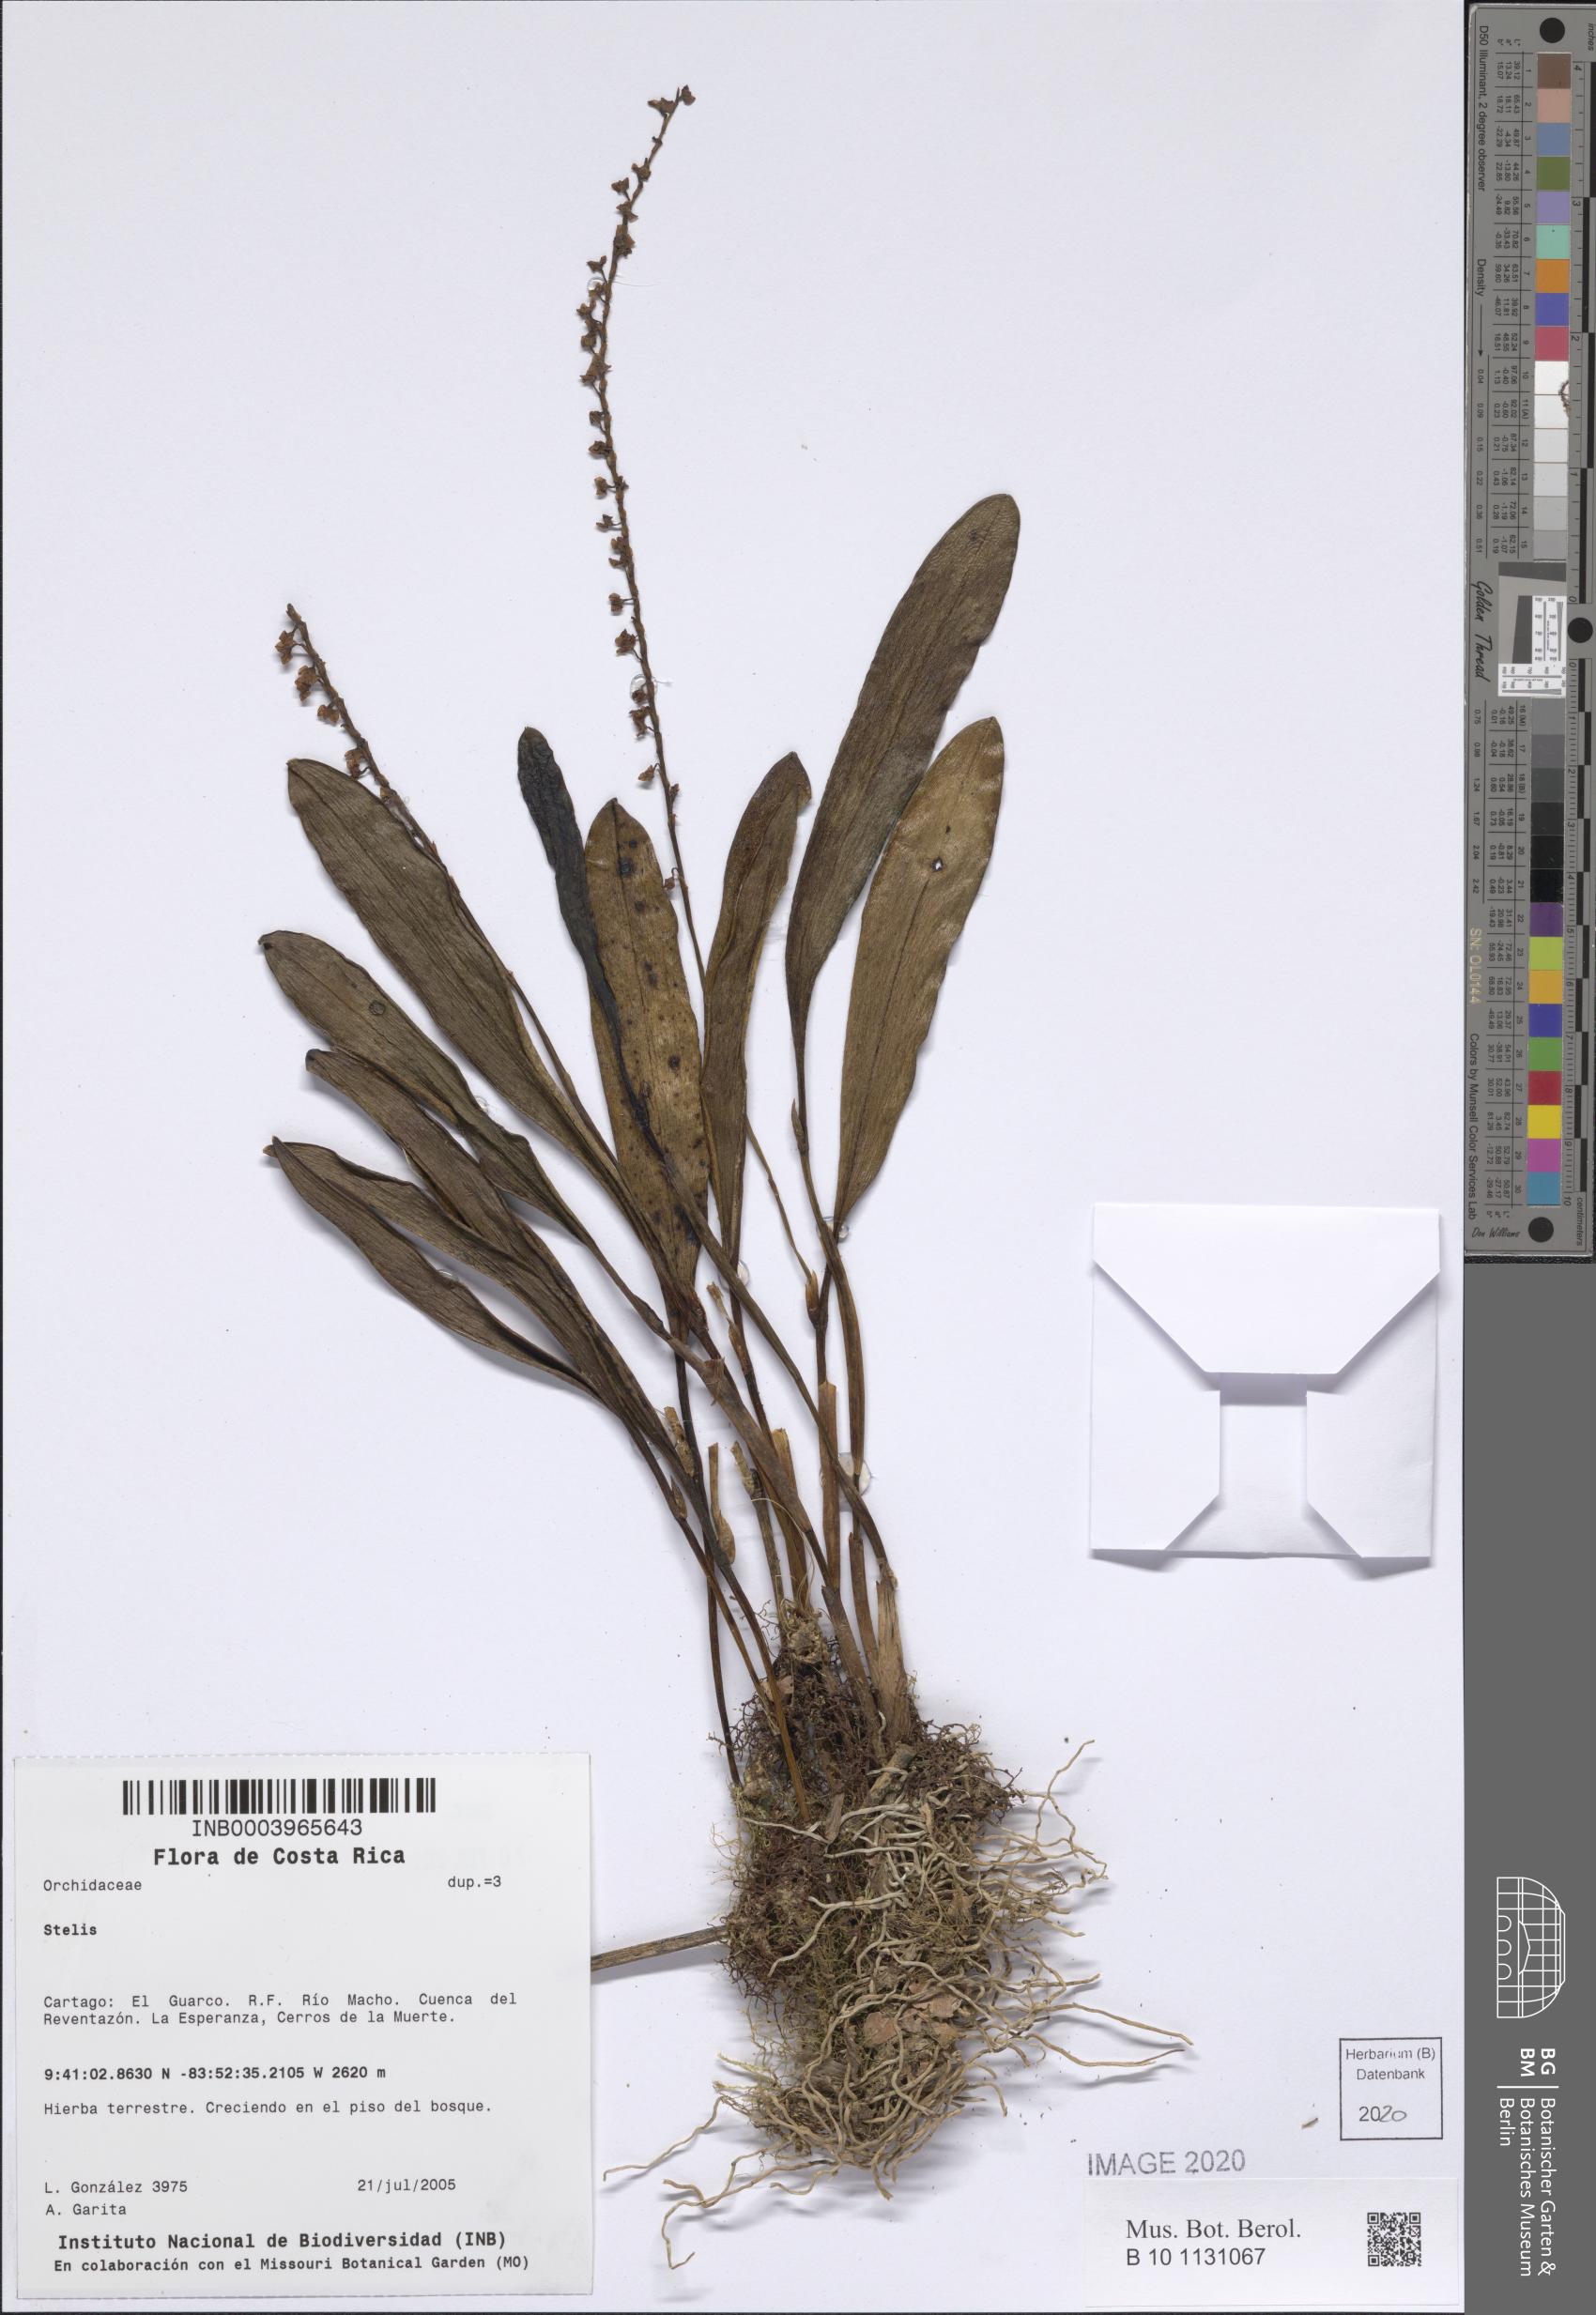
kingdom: Plantae
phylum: Tracheophyta
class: Liliopsida
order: Asparagales
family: Orchidaceae
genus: Stelis
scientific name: Stelis
